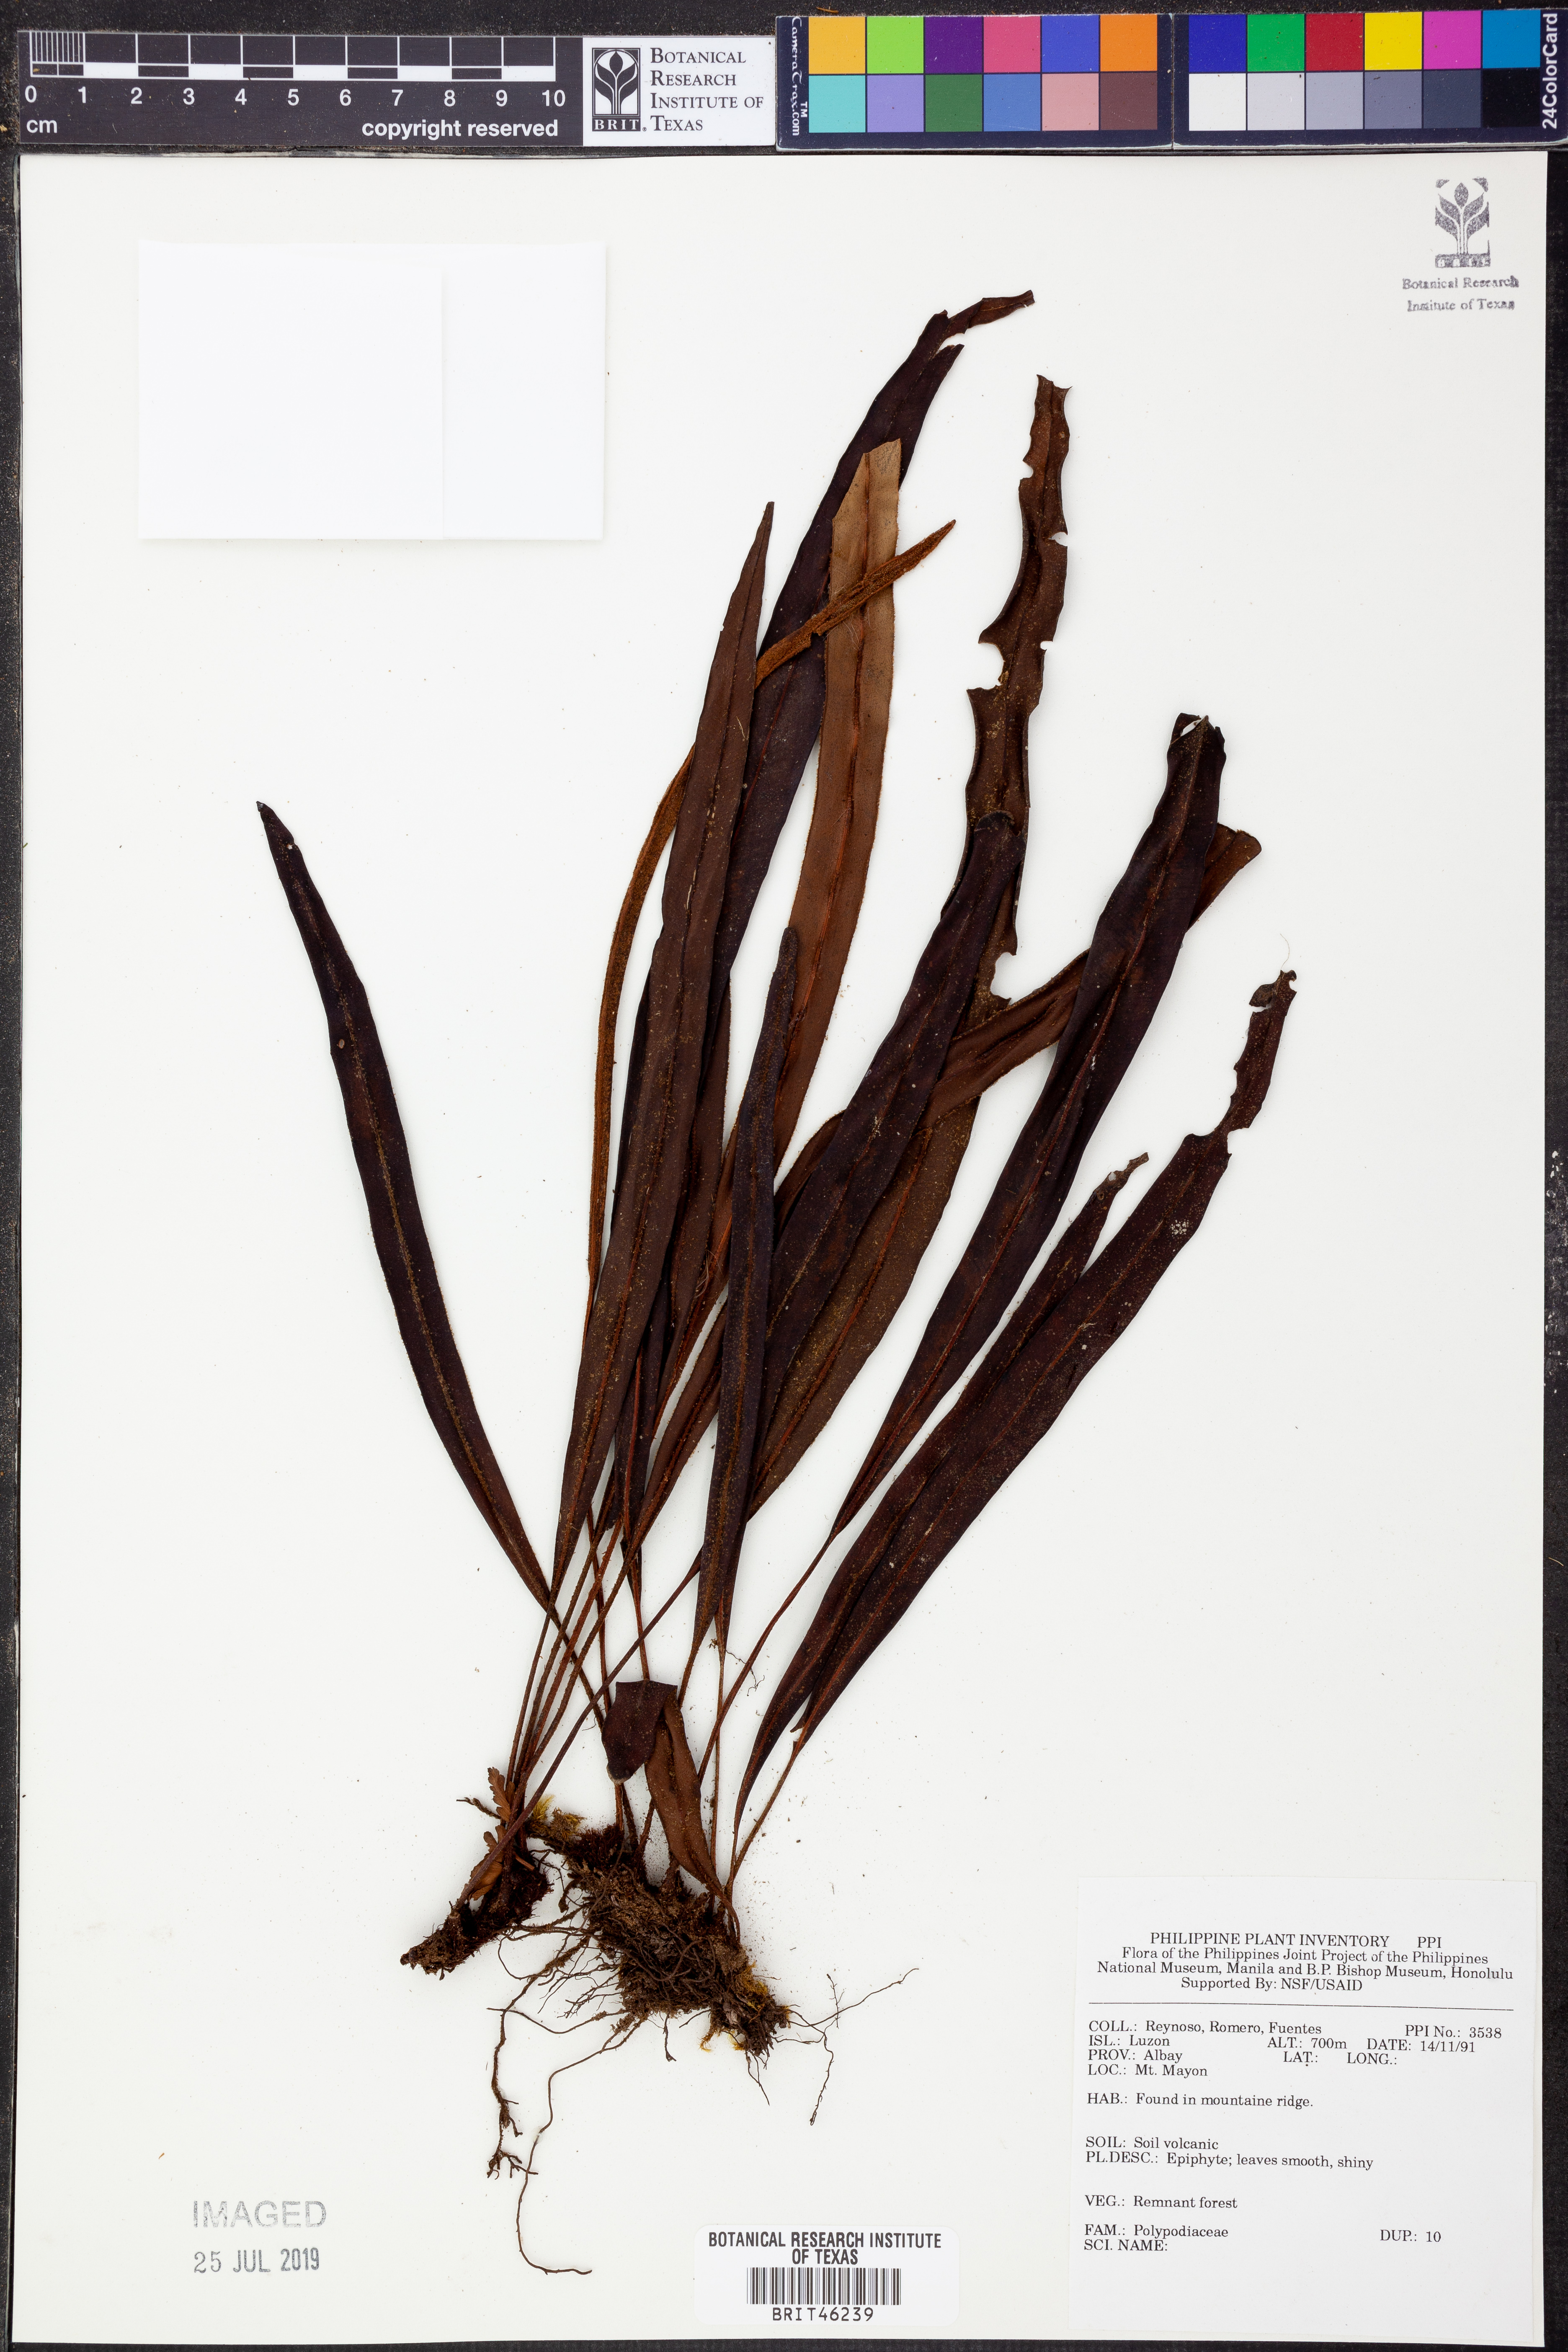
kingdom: Plantae
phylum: Tracheophyta
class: Polypodiopsida
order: Polypodiales
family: Polypodiaceae
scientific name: Polypodiaceae
